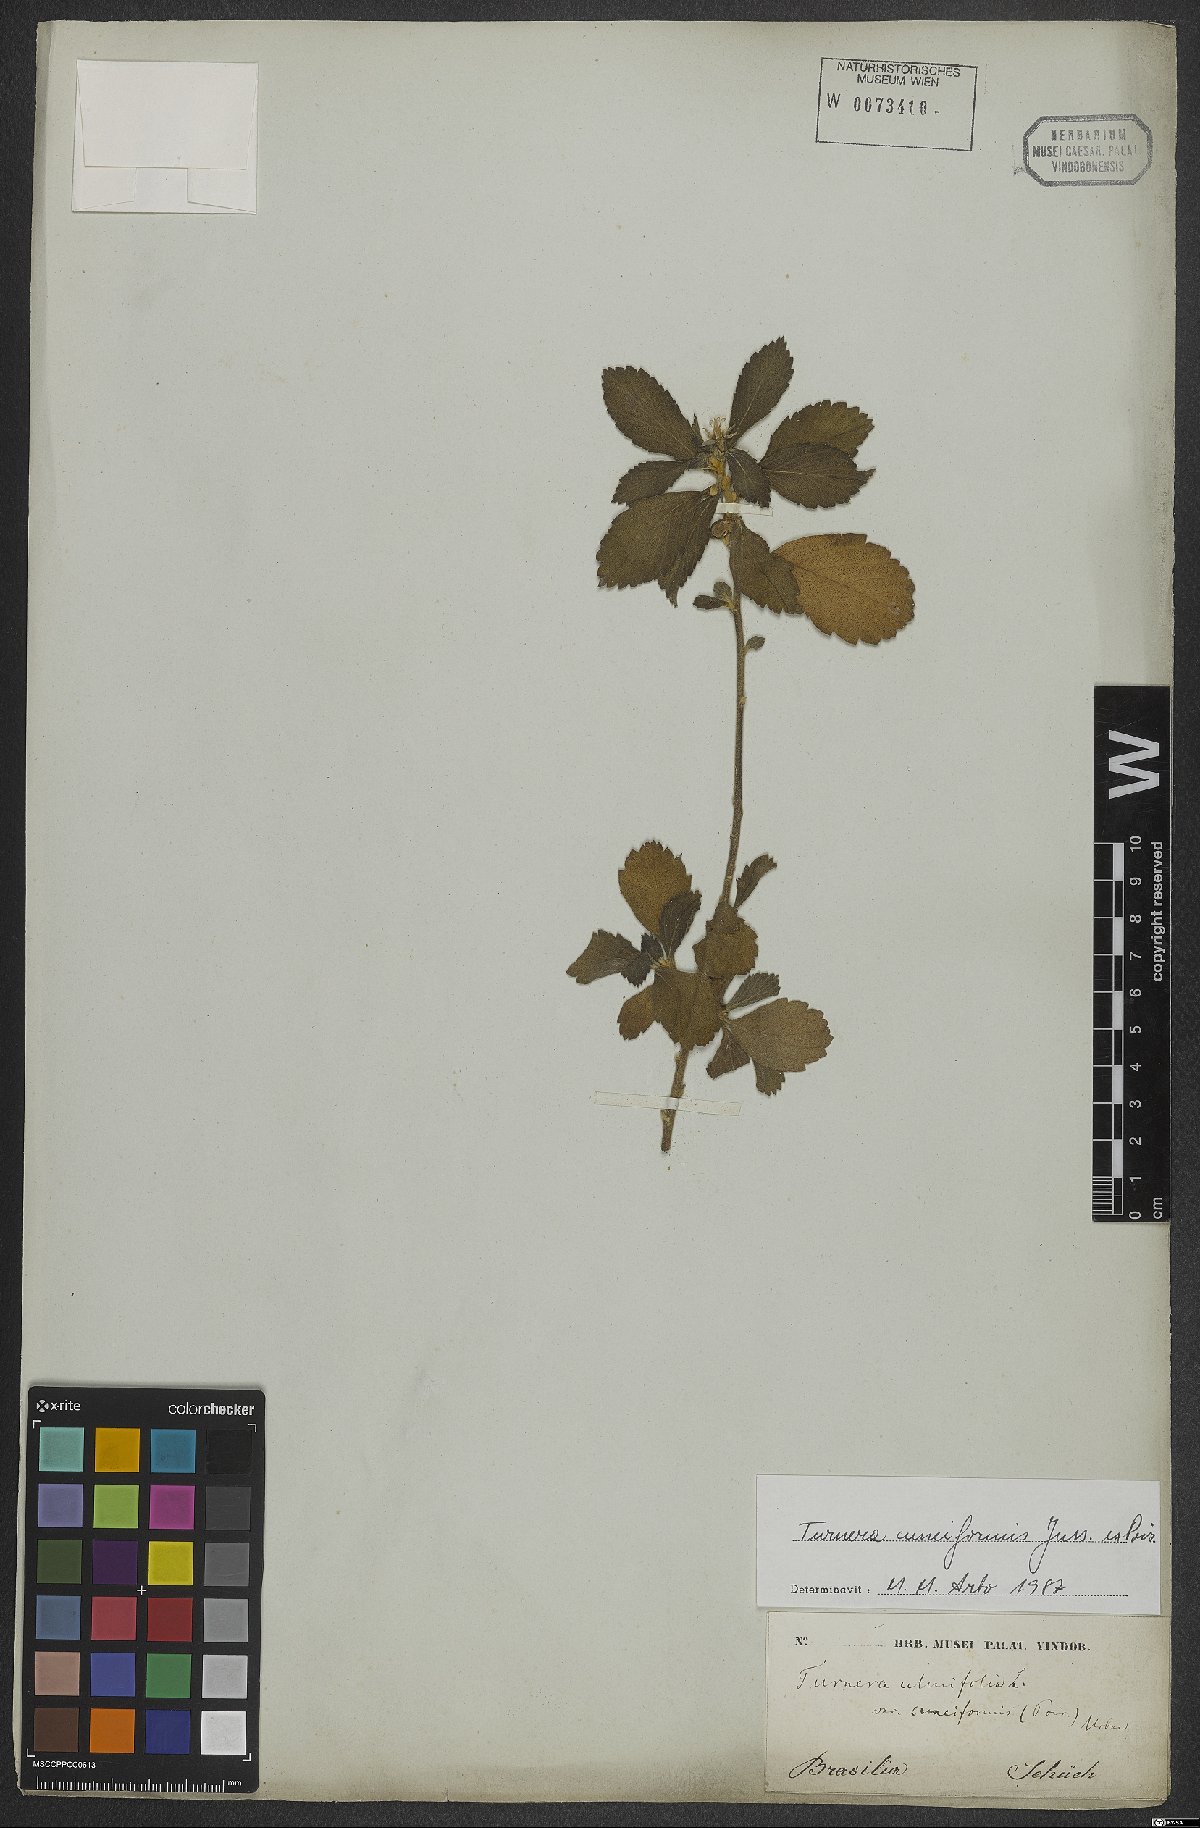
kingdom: Plantae
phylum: Tracheophyta
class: Magnoliopsida
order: Malpighiales
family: Turneraceae
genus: Turnera
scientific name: Turnera cuneiformis
